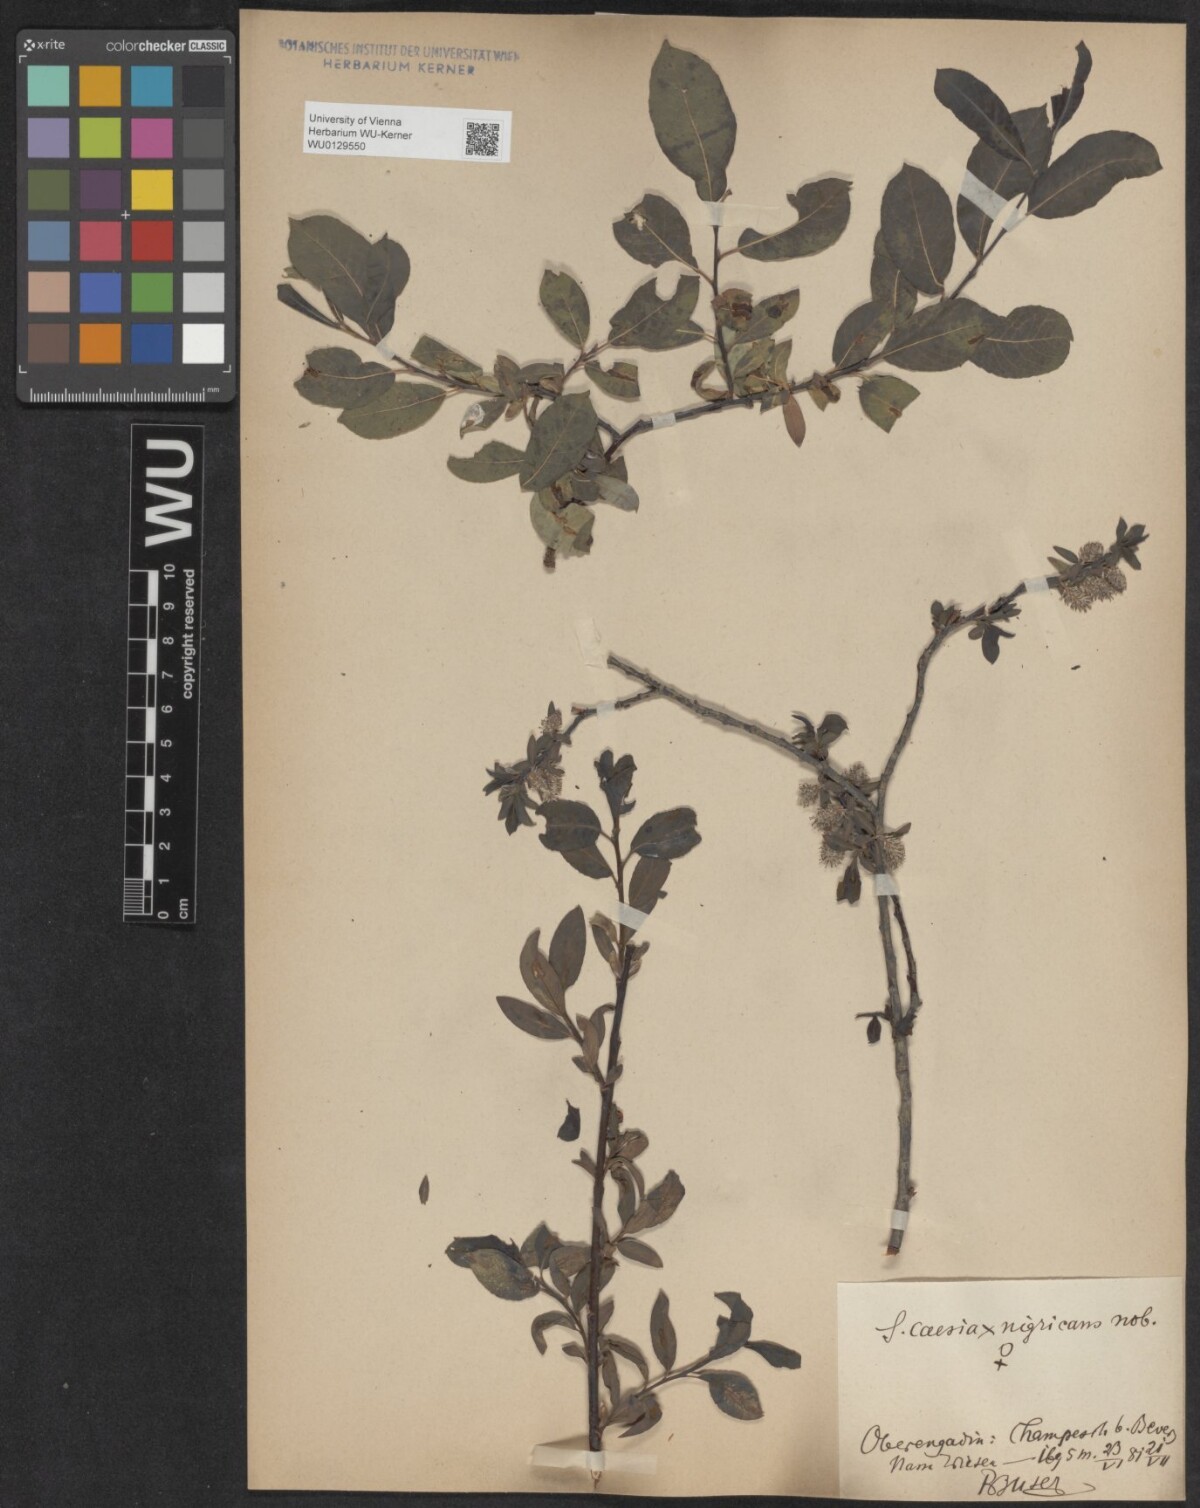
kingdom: Plantae
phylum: Tracheophyta
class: Magnoliopsida
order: Malpighiales
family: Salicaceae
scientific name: Salicaceae
